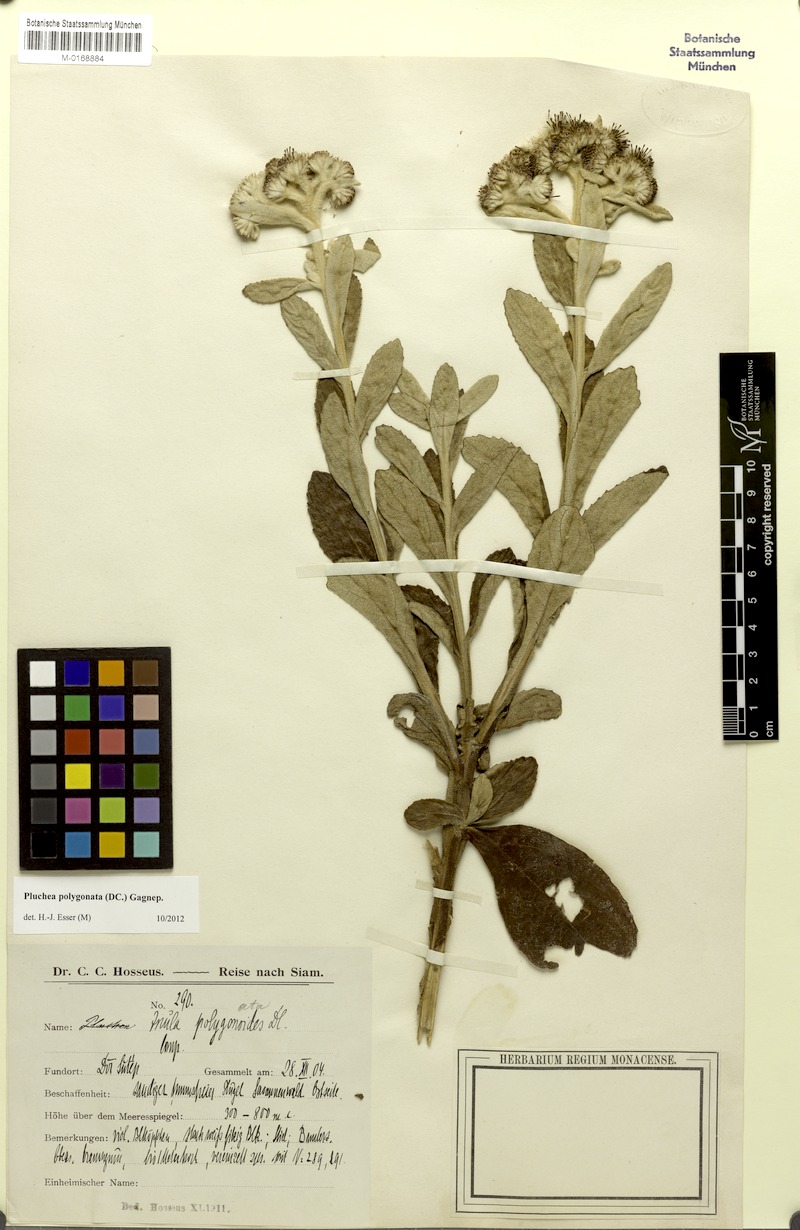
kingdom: Plantae
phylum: Tracheophyta
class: Magnoliopsida
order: Asterales
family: Asteraceae
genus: Pluchea
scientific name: Pluchea polygonata
